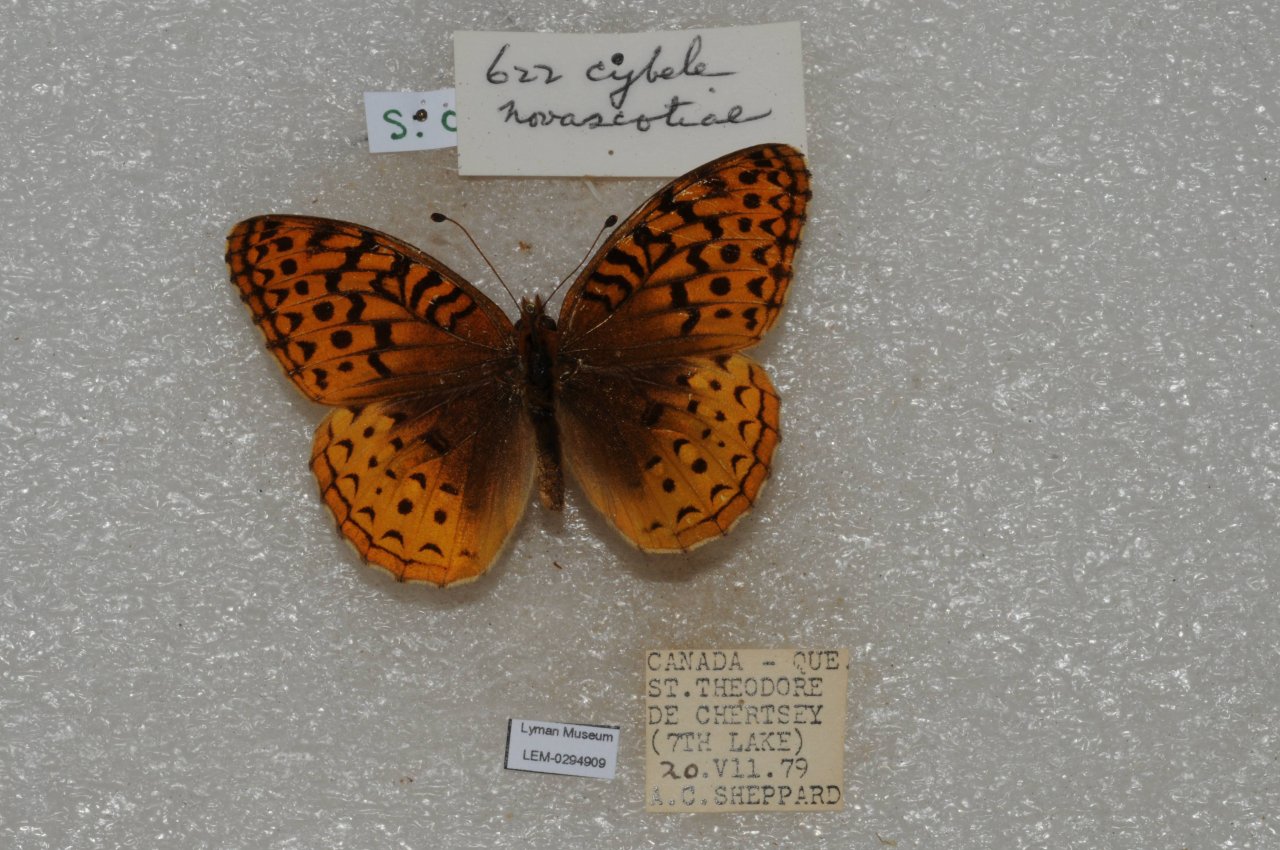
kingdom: Animalia
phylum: Arthropoda
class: Insecta
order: Lepidoptera
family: Nymphalidae
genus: Speyeria
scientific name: Speyeria cybele
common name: Great Spangled Fritillary
